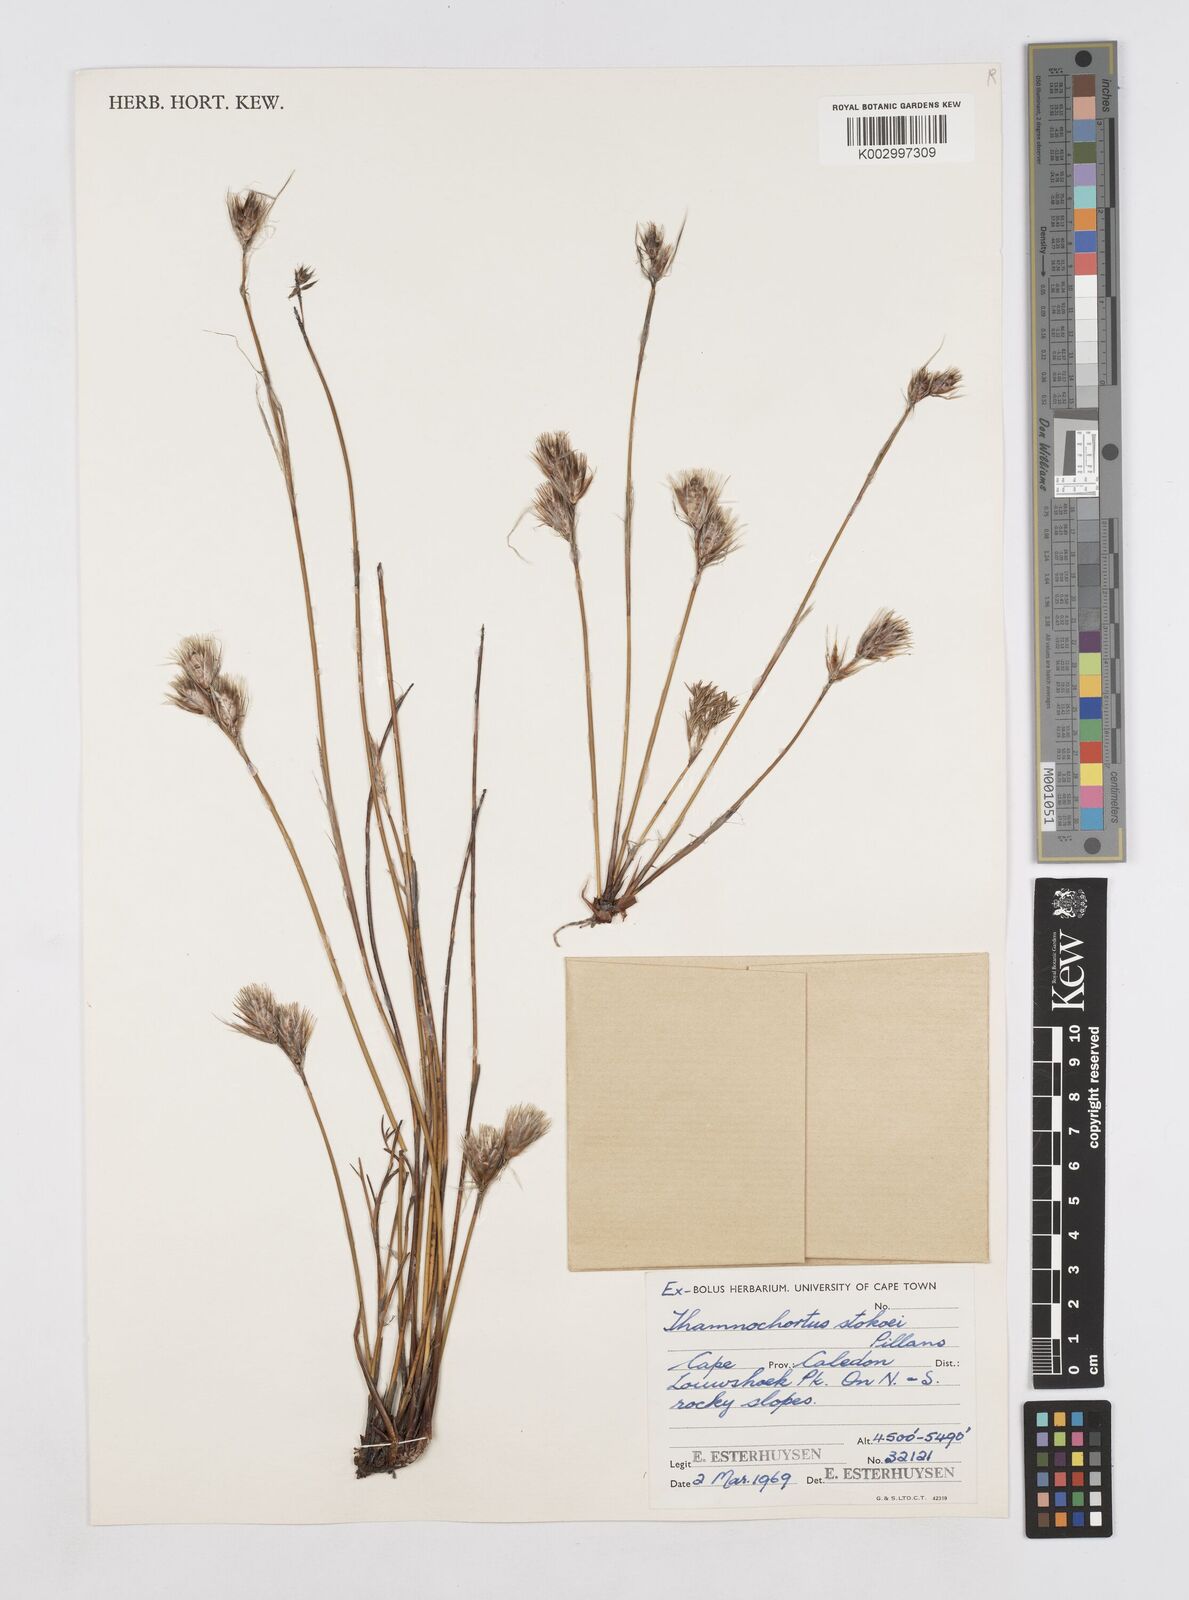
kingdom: Plantae
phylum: Tracheophyta
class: Liliopsida
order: Poales
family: Restionaceae
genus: Thamnochortus
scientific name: Thamnochortus stokoei
